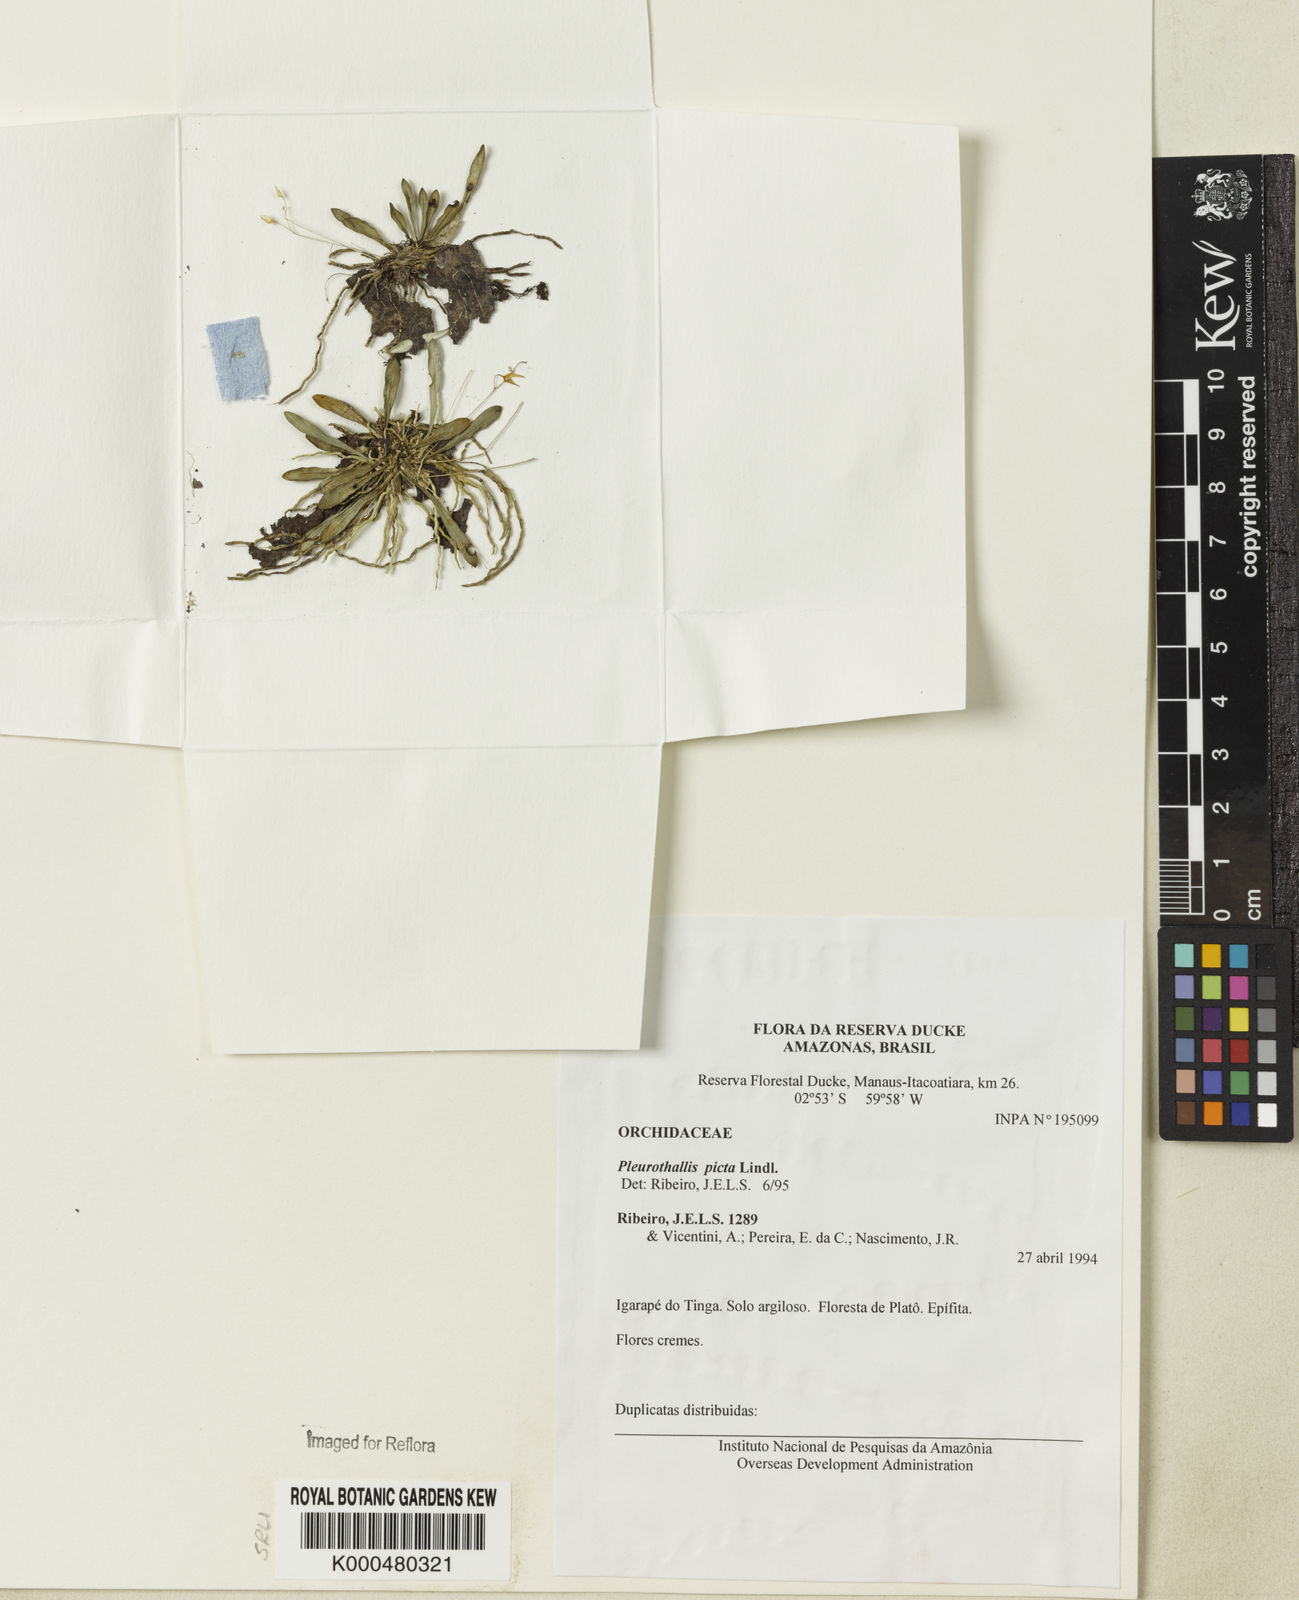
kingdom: Plantae
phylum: Tracheophyta
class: Liliopsida
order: Asparagales
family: Orchidaceae
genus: Specklinia
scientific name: Specklinia picta
